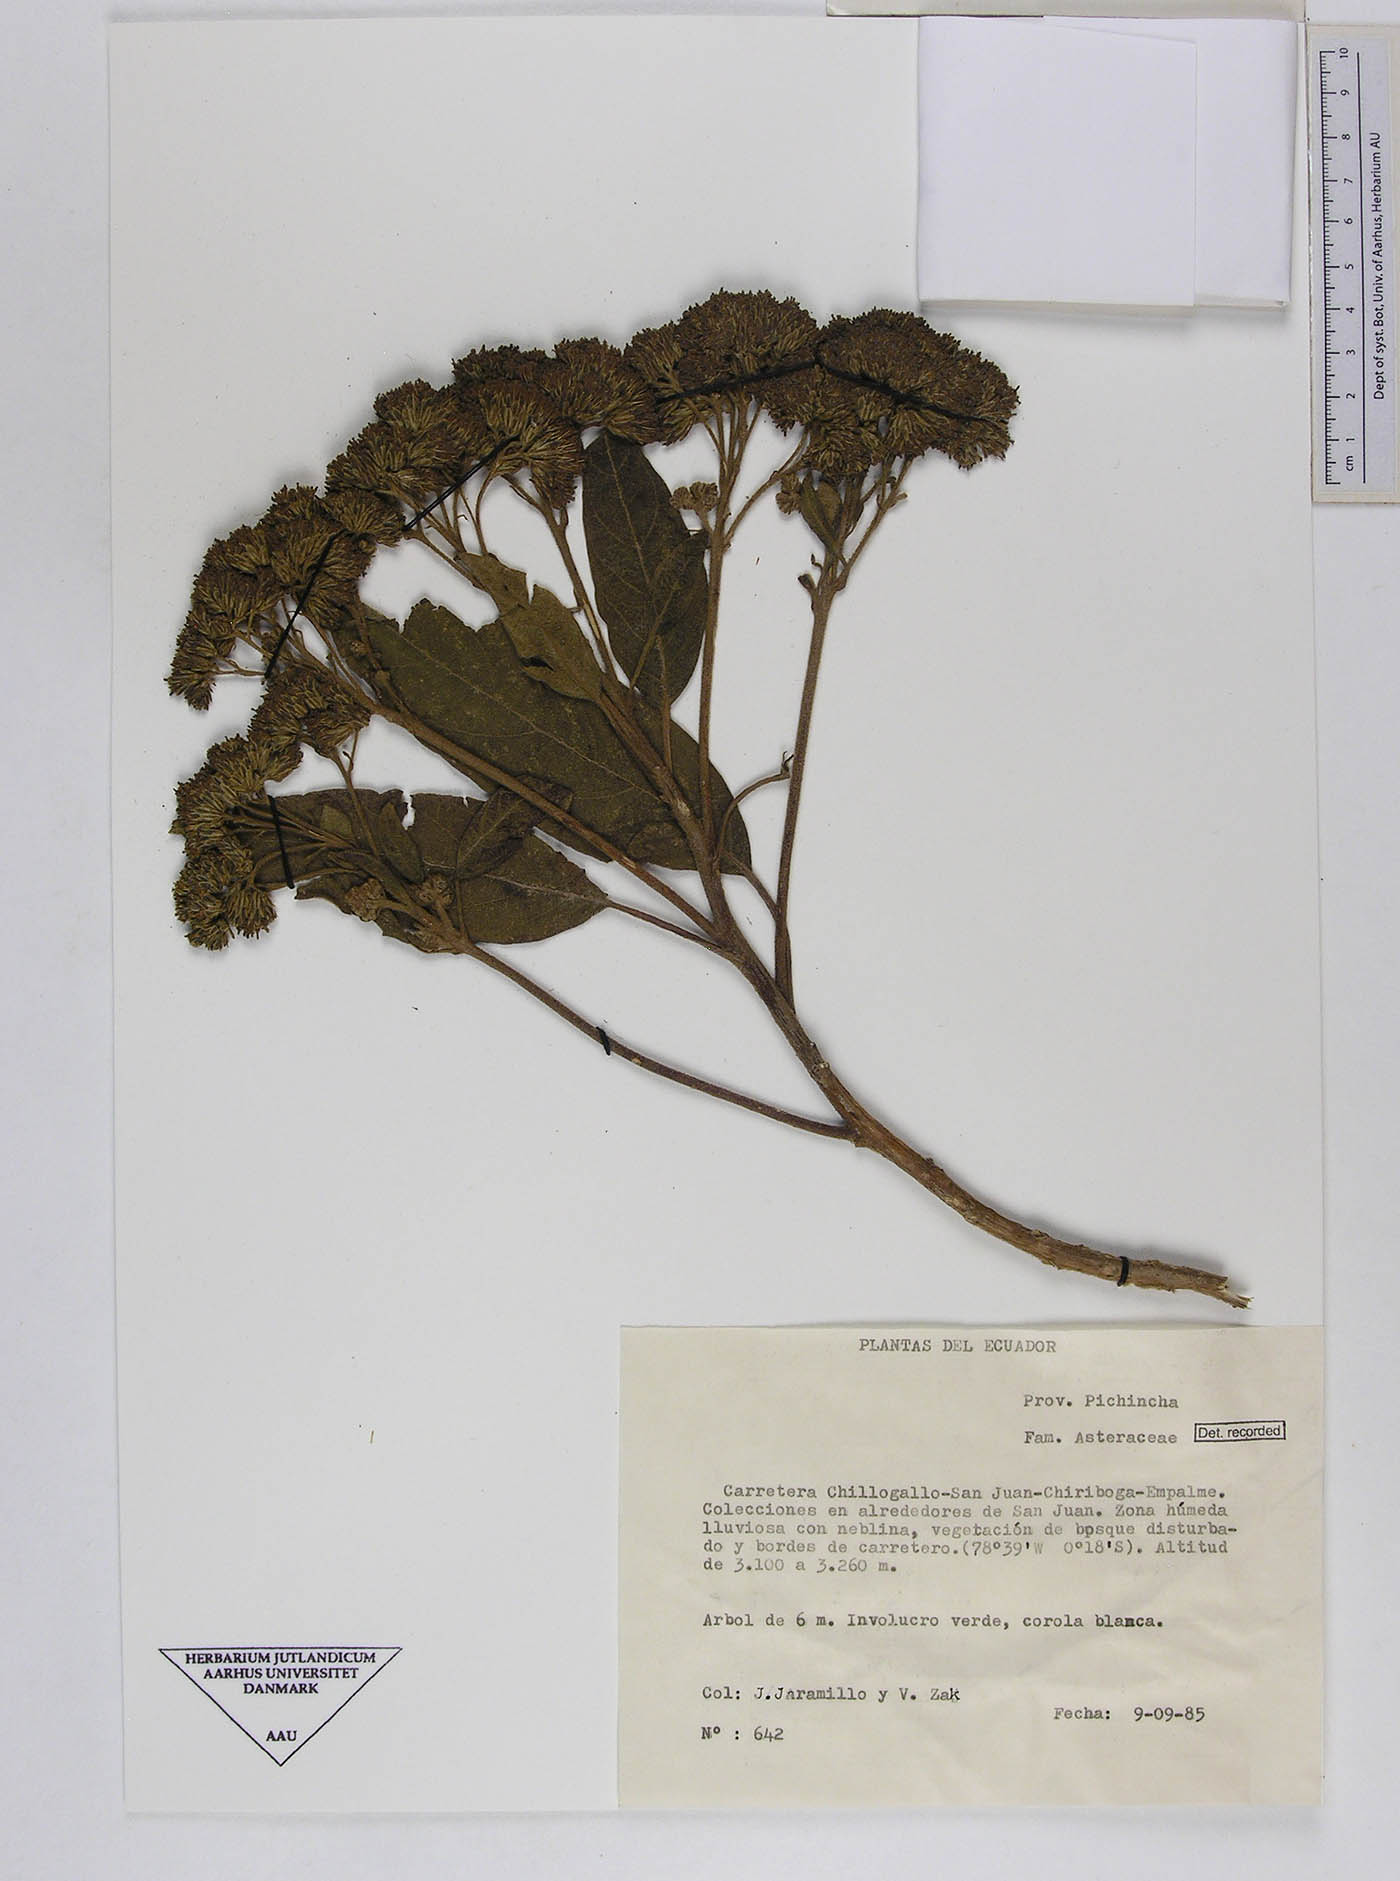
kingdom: Plantae
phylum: Tracheophyta
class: Magnoliopsida
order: Asterales
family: Asteraceae
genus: Verbesina
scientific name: Verbesina arborea
